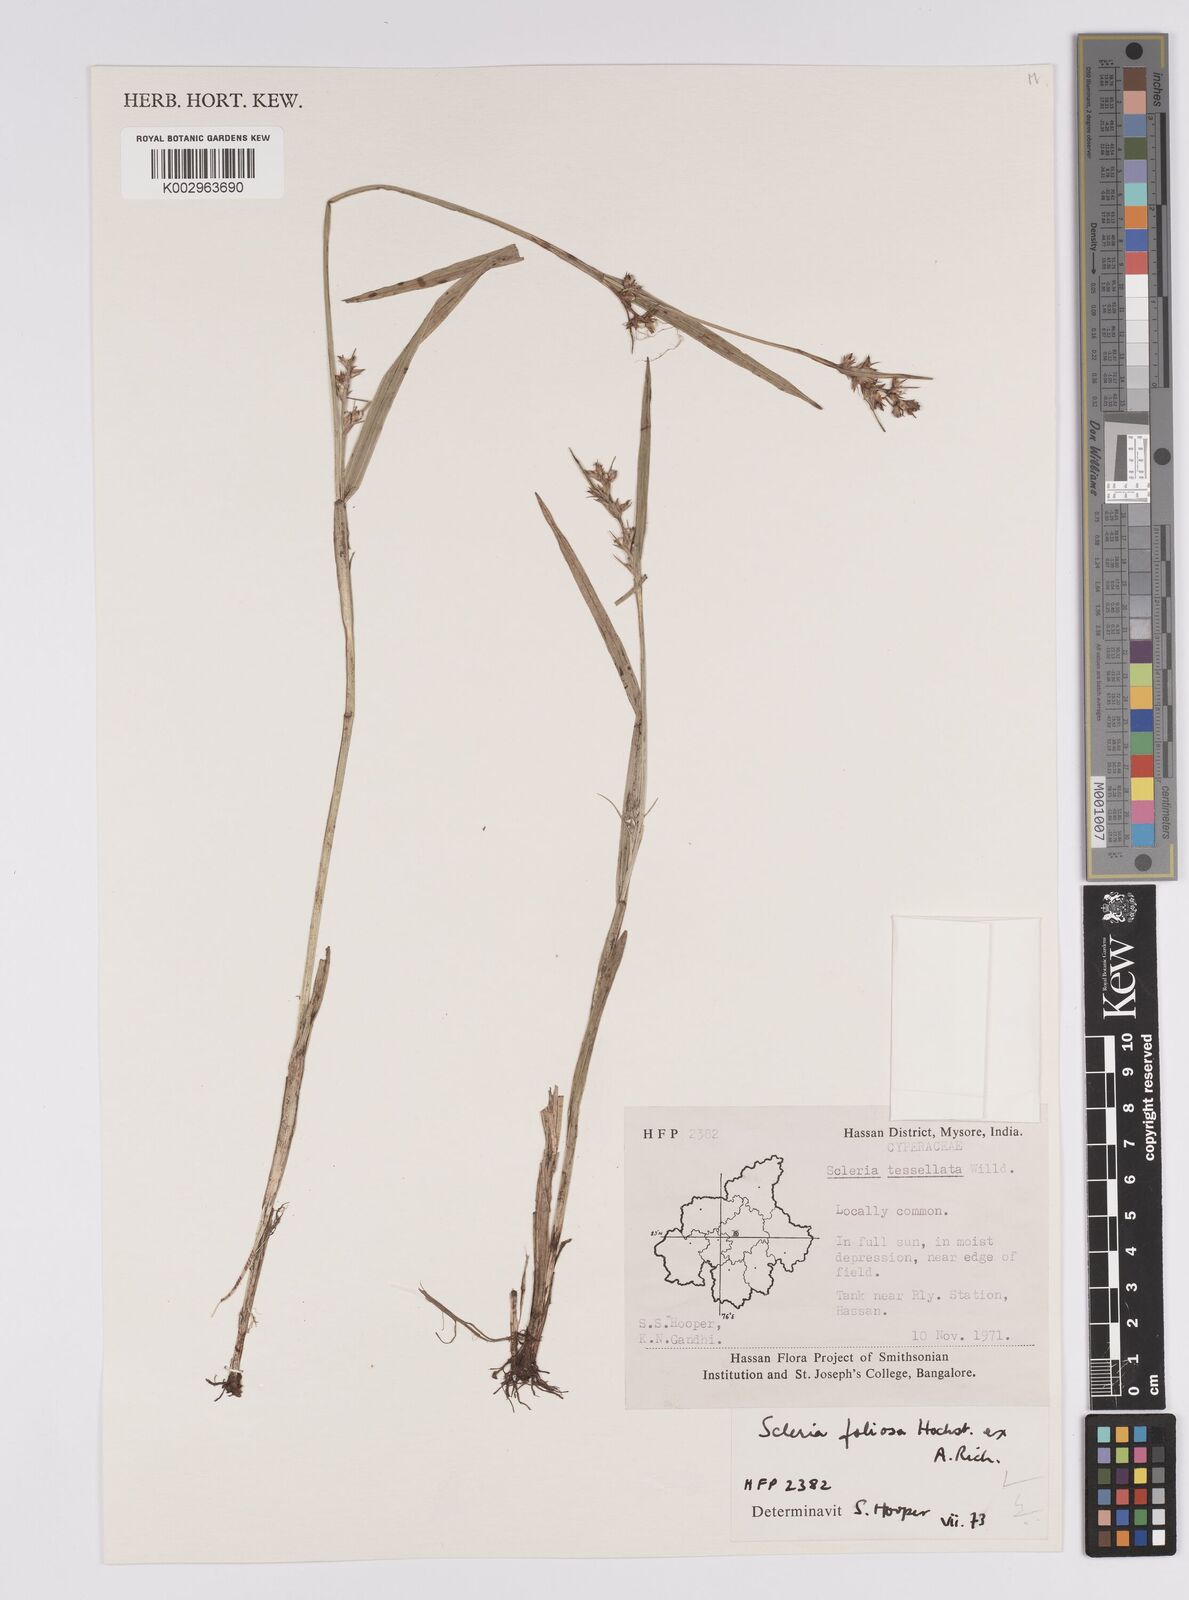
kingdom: Plantae
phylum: Tracheophyta
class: Liliopsida
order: Poales
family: Cyperaceae
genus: Scleria
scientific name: Scleria foliosa
